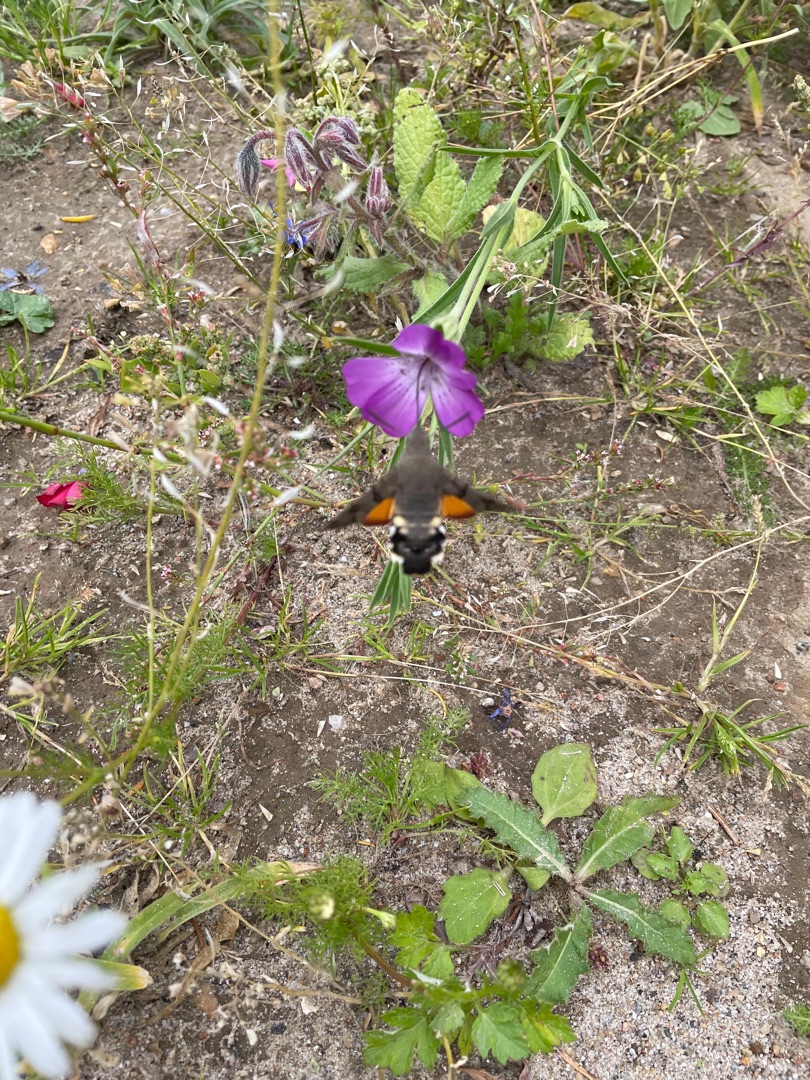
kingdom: Animalia
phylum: Arthropoda
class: Insecta
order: Lepidoptera
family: Sphingidae
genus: Macroglossum
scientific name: Macroglossum stellatarum
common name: Duehale
